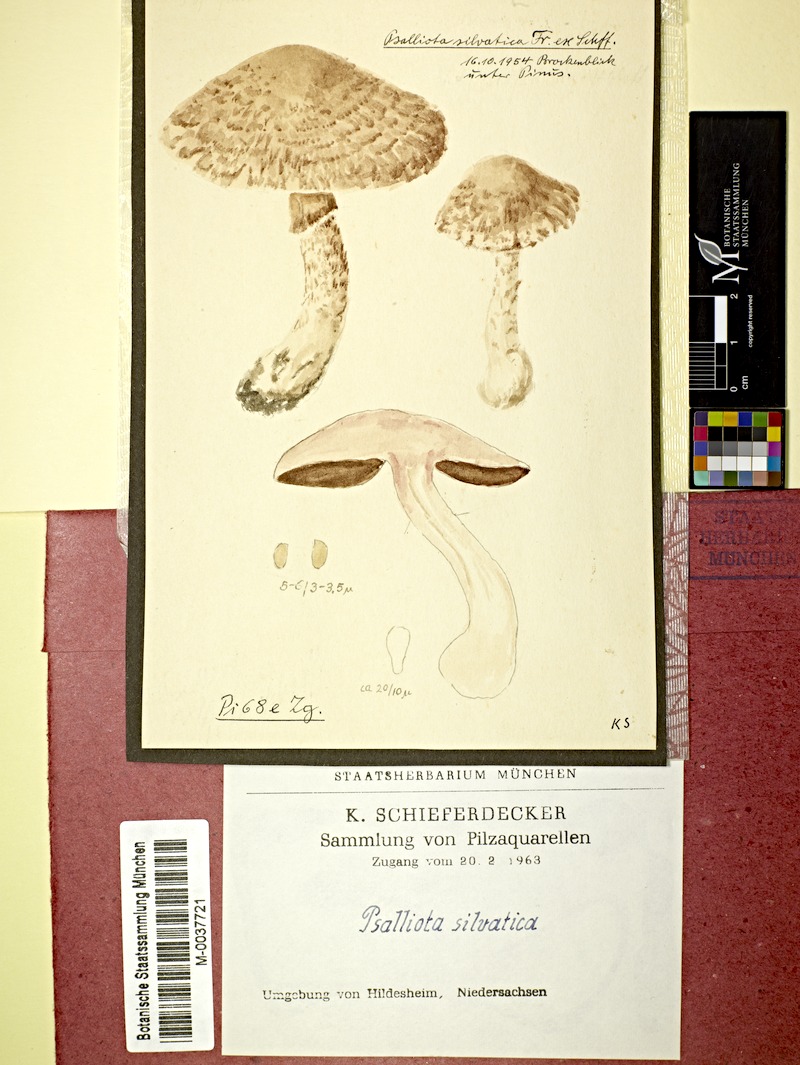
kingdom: Fungi
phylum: Basidiomycota
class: Agaricomycetes
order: Agaricales
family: Agaricaceae
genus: Agaricus
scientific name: Agaricus sylvaticus
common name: Blushing wood mushroom
